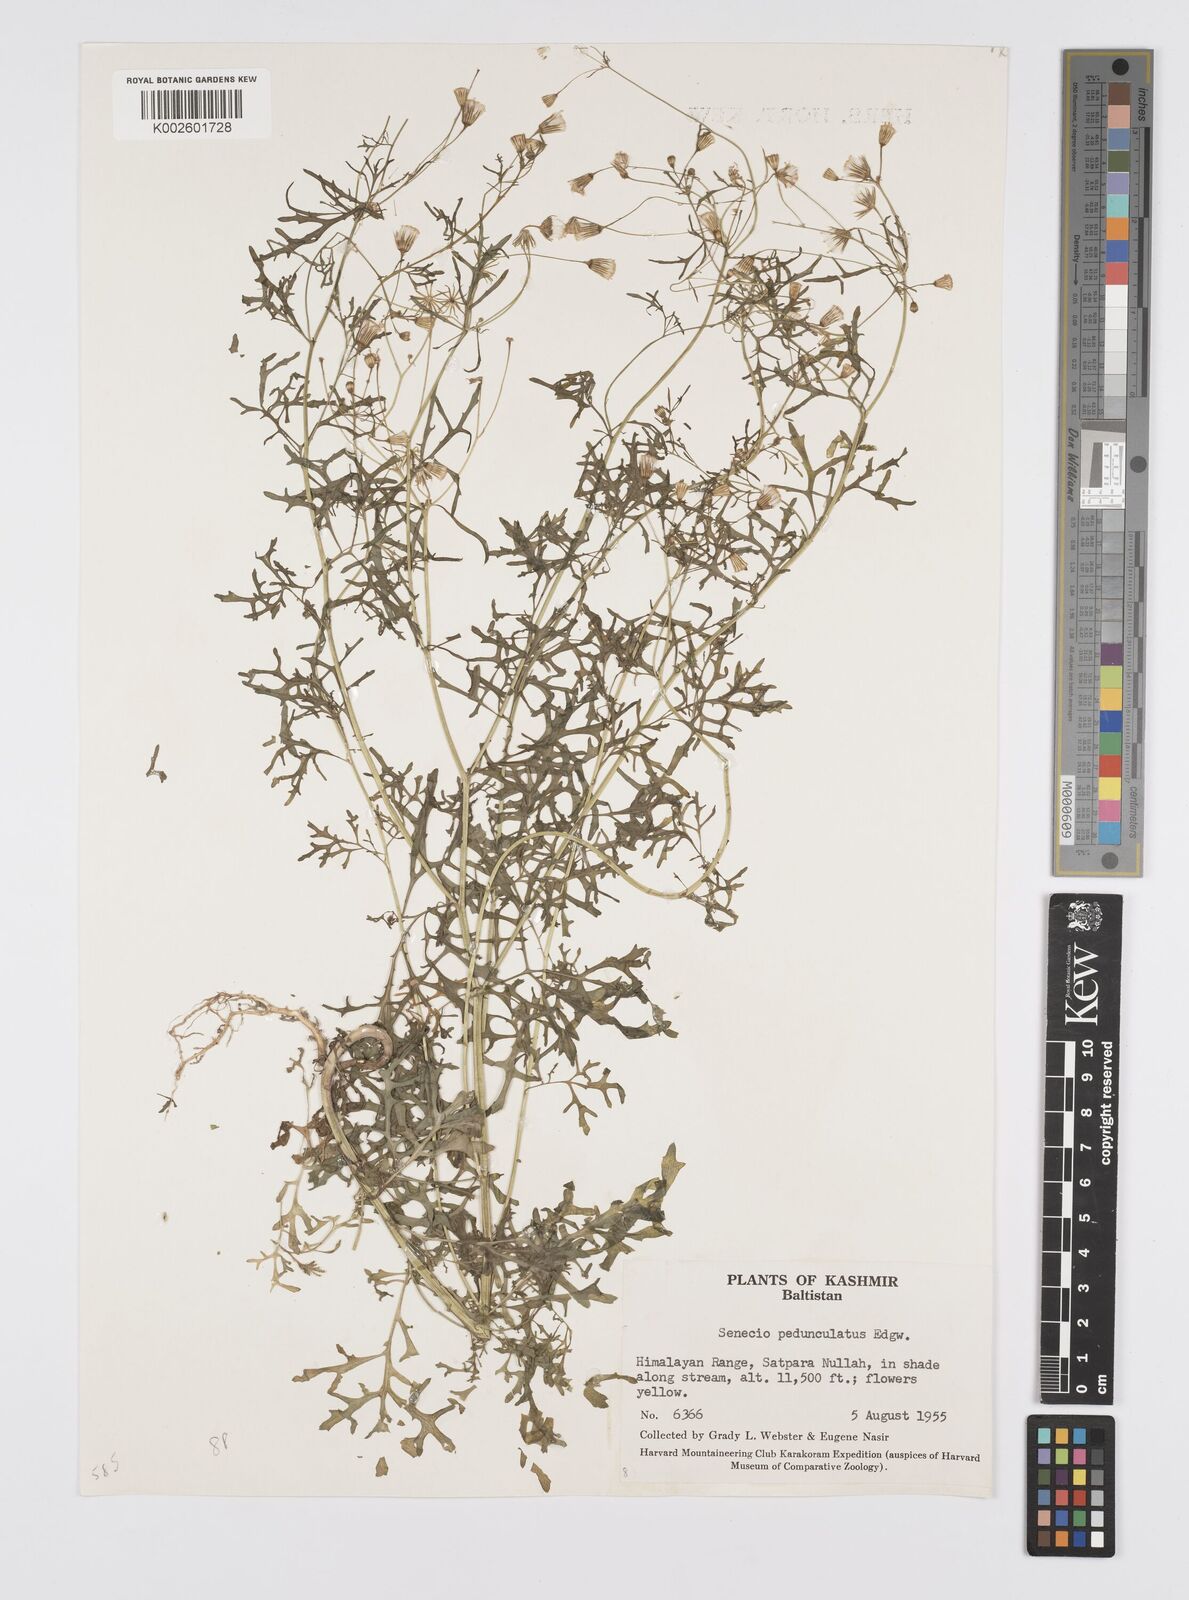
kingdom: Plantae
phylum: Tracheophyta
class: Magnoliopsida
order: Asterales
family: Asteraceae
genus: Senecio
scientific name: Senecio krascheninnikovii
